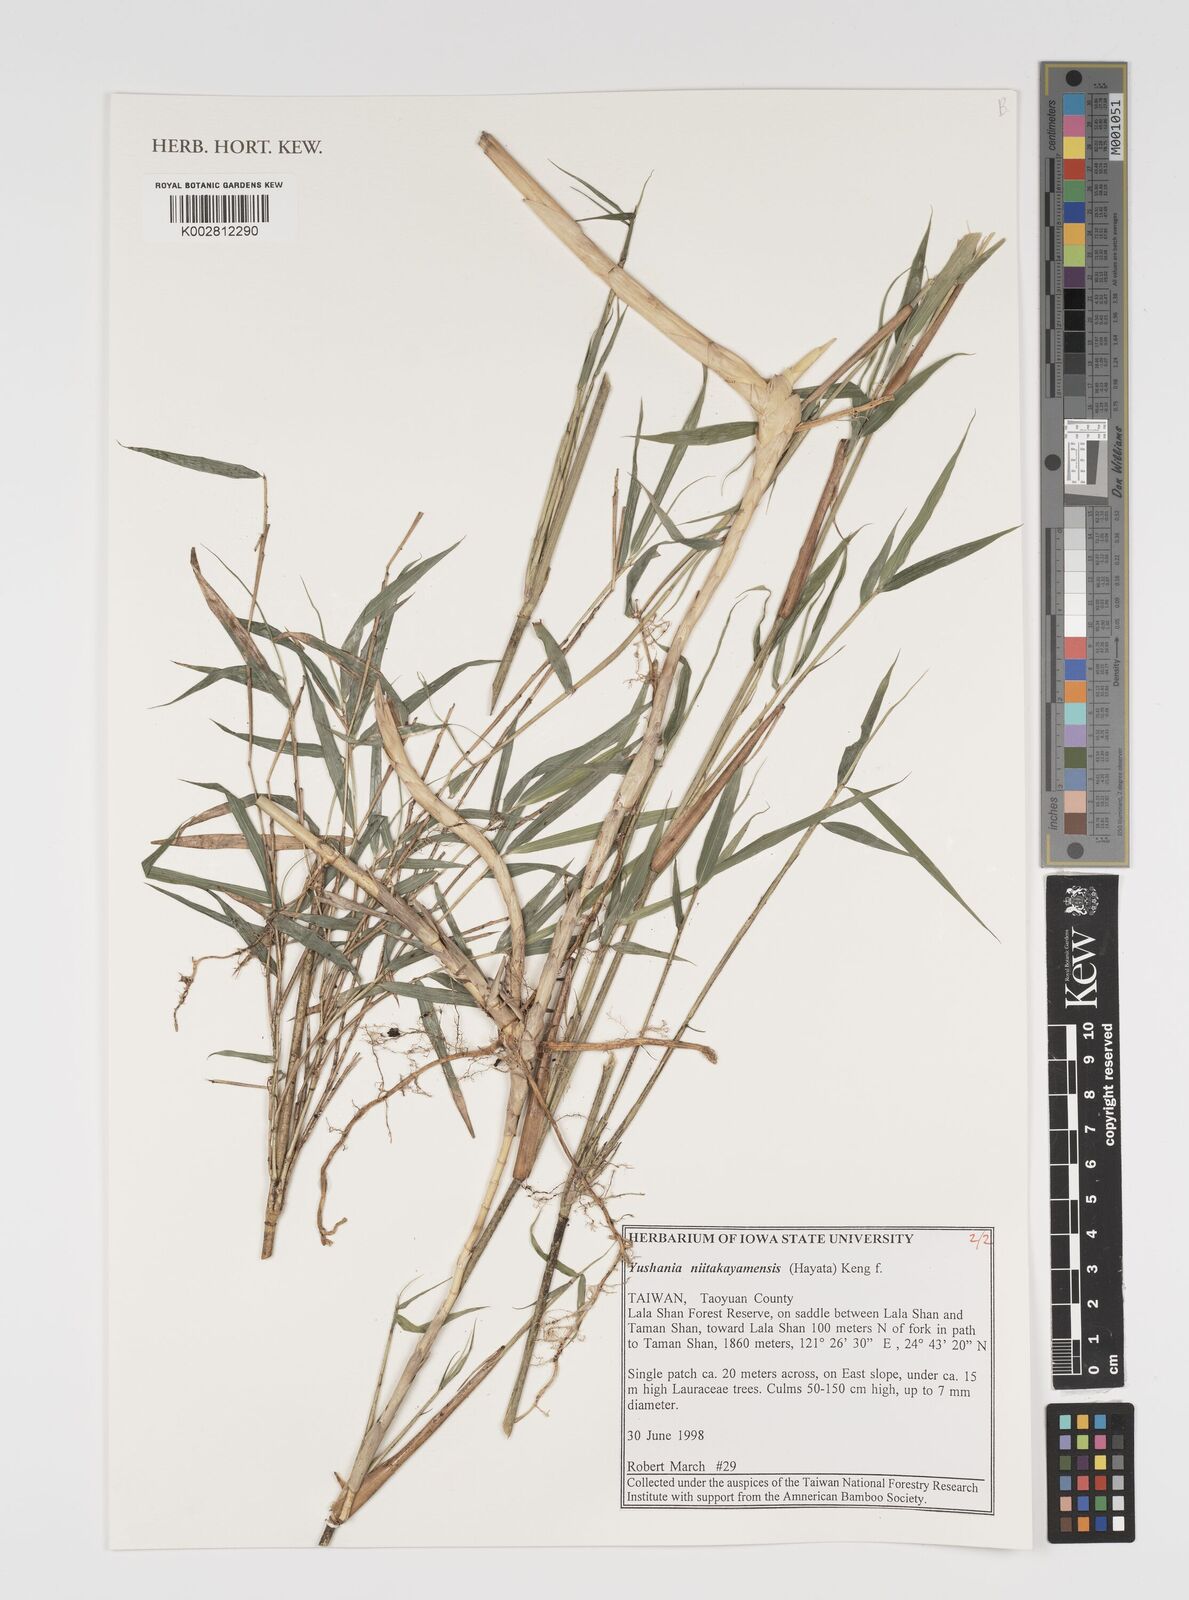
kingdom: Plantae
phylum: Tracheophyta
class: Liliopsida
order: Poales
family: Poaceae
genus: Yushania
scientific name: Yushania niitakayamensis
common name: Yushan cane
